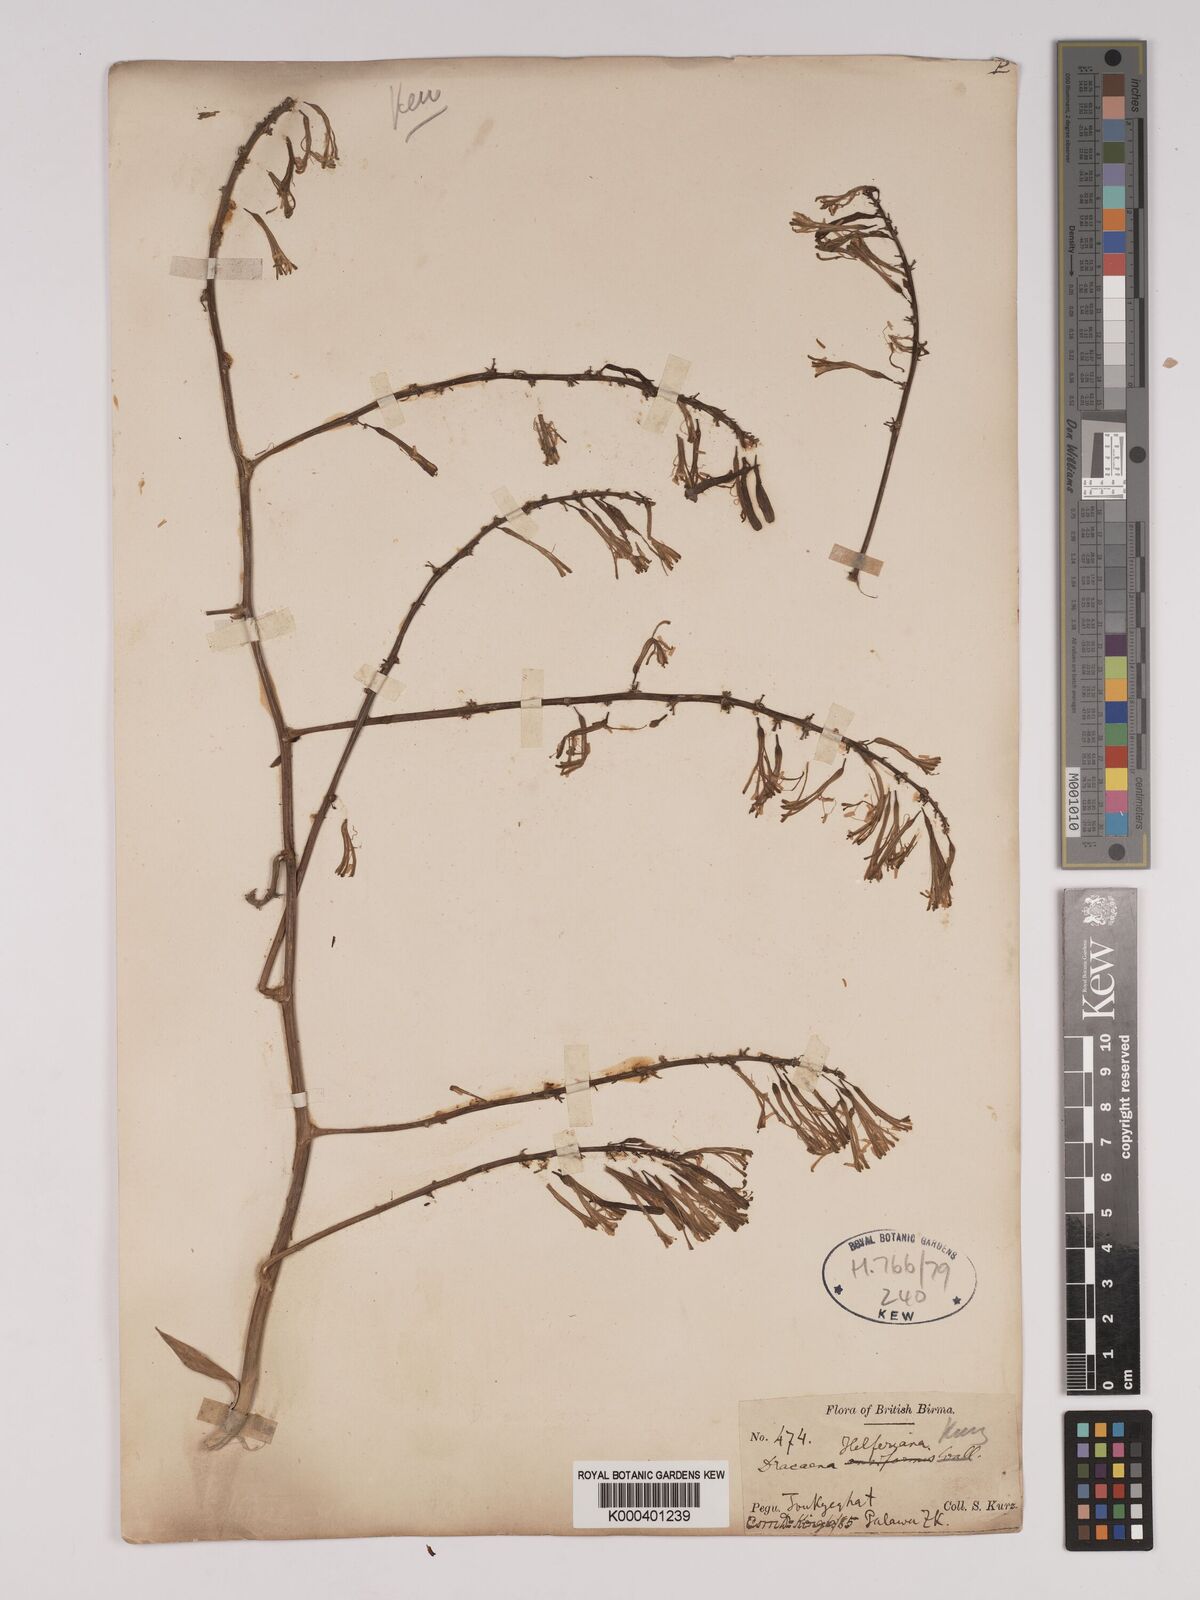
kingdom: Plantae
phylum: Tracheophyta
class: Liliopsida
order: Asparagales
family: Asparagaceae
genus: Dracaena
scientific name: Dracaena griffithii
